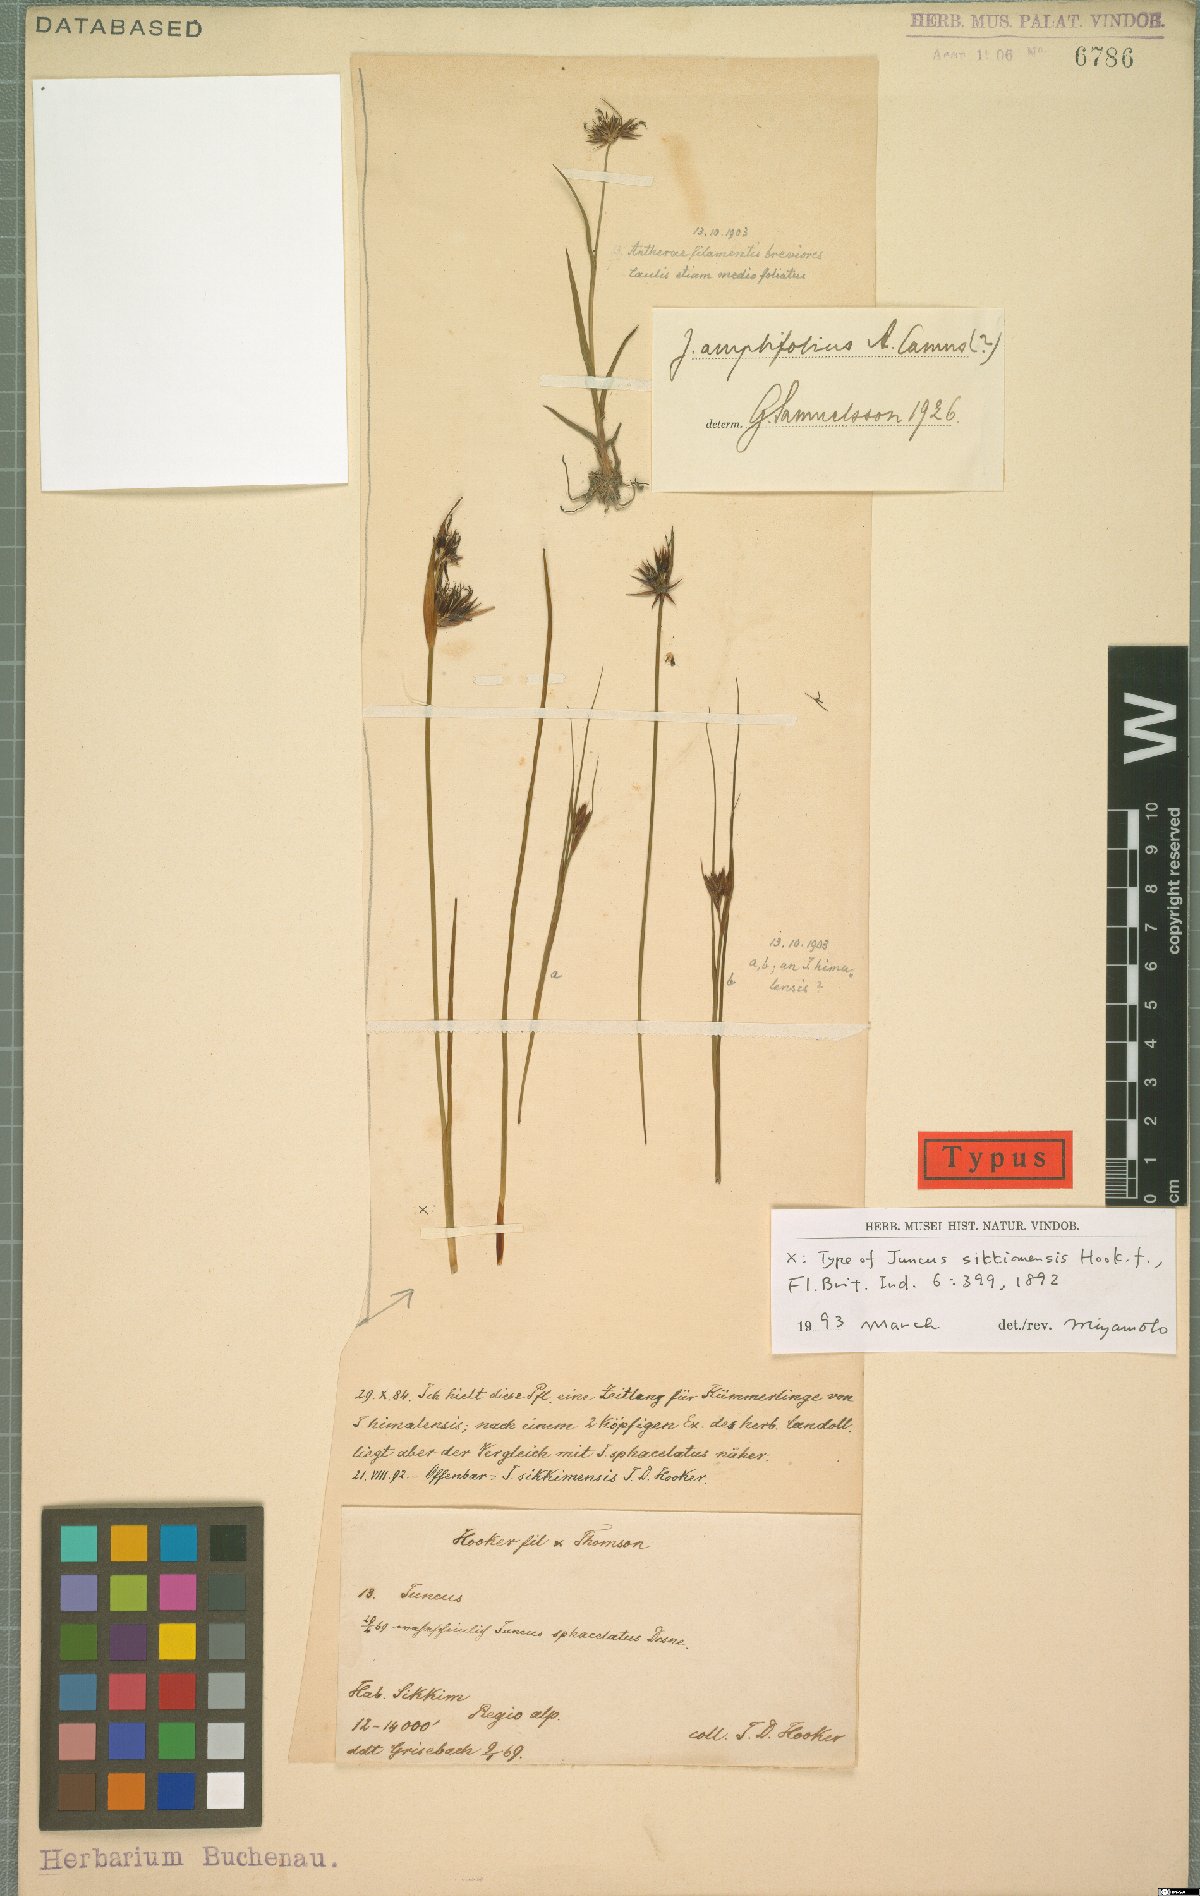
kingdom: Plantae
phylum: Tracheophyta
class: Liliopsida
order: Poales
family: Juncaceae
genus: Juncus
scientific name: Juncus sikkimensis
